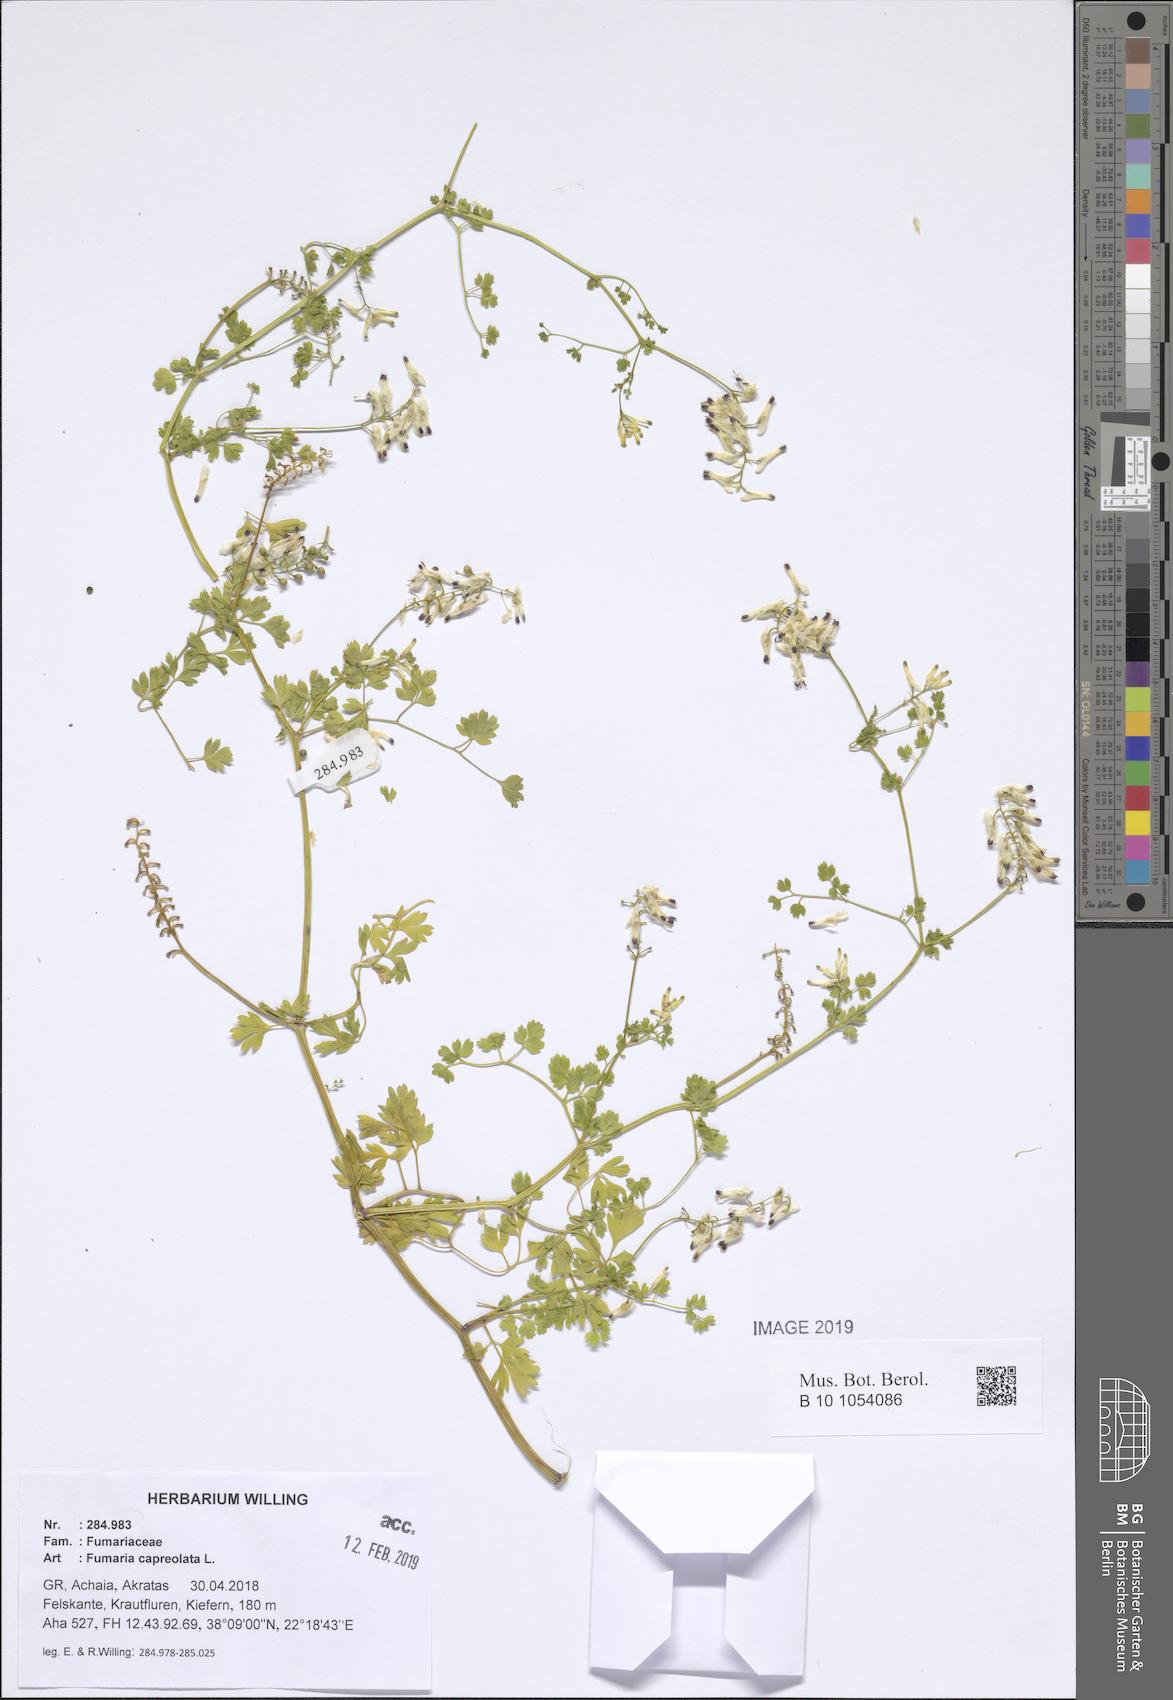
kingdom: Plantae
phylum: Tracheophyta
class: Magnoliopsida
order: Ranunculales
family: Papaveraceae
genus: Fumaria
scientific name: Fumaria capreolata
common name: White ramping-fumitory
